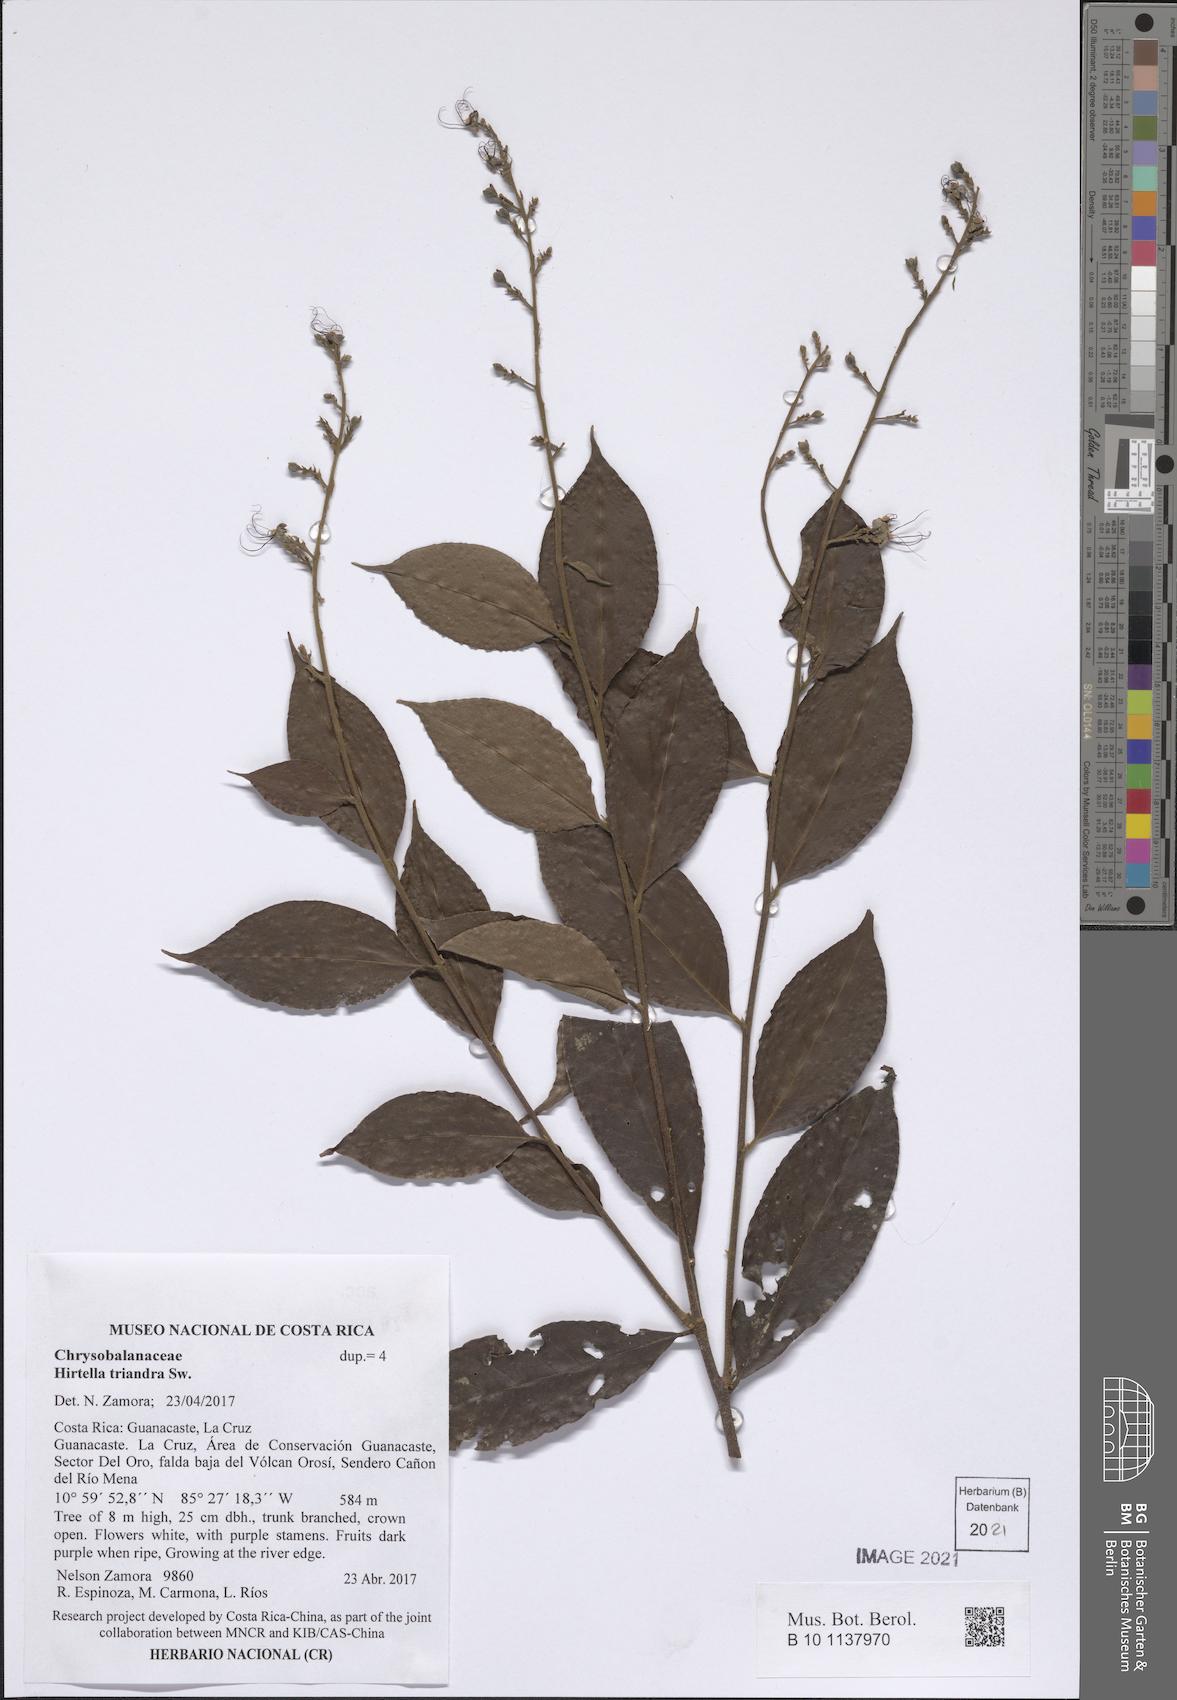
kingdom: Plantae
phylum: Tracheophyta
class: Magnoliopsida
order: Malpighiales
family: Chrysobalanaceae
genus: Hirtella
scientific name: Hirtella triandra
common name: Hairy plum
